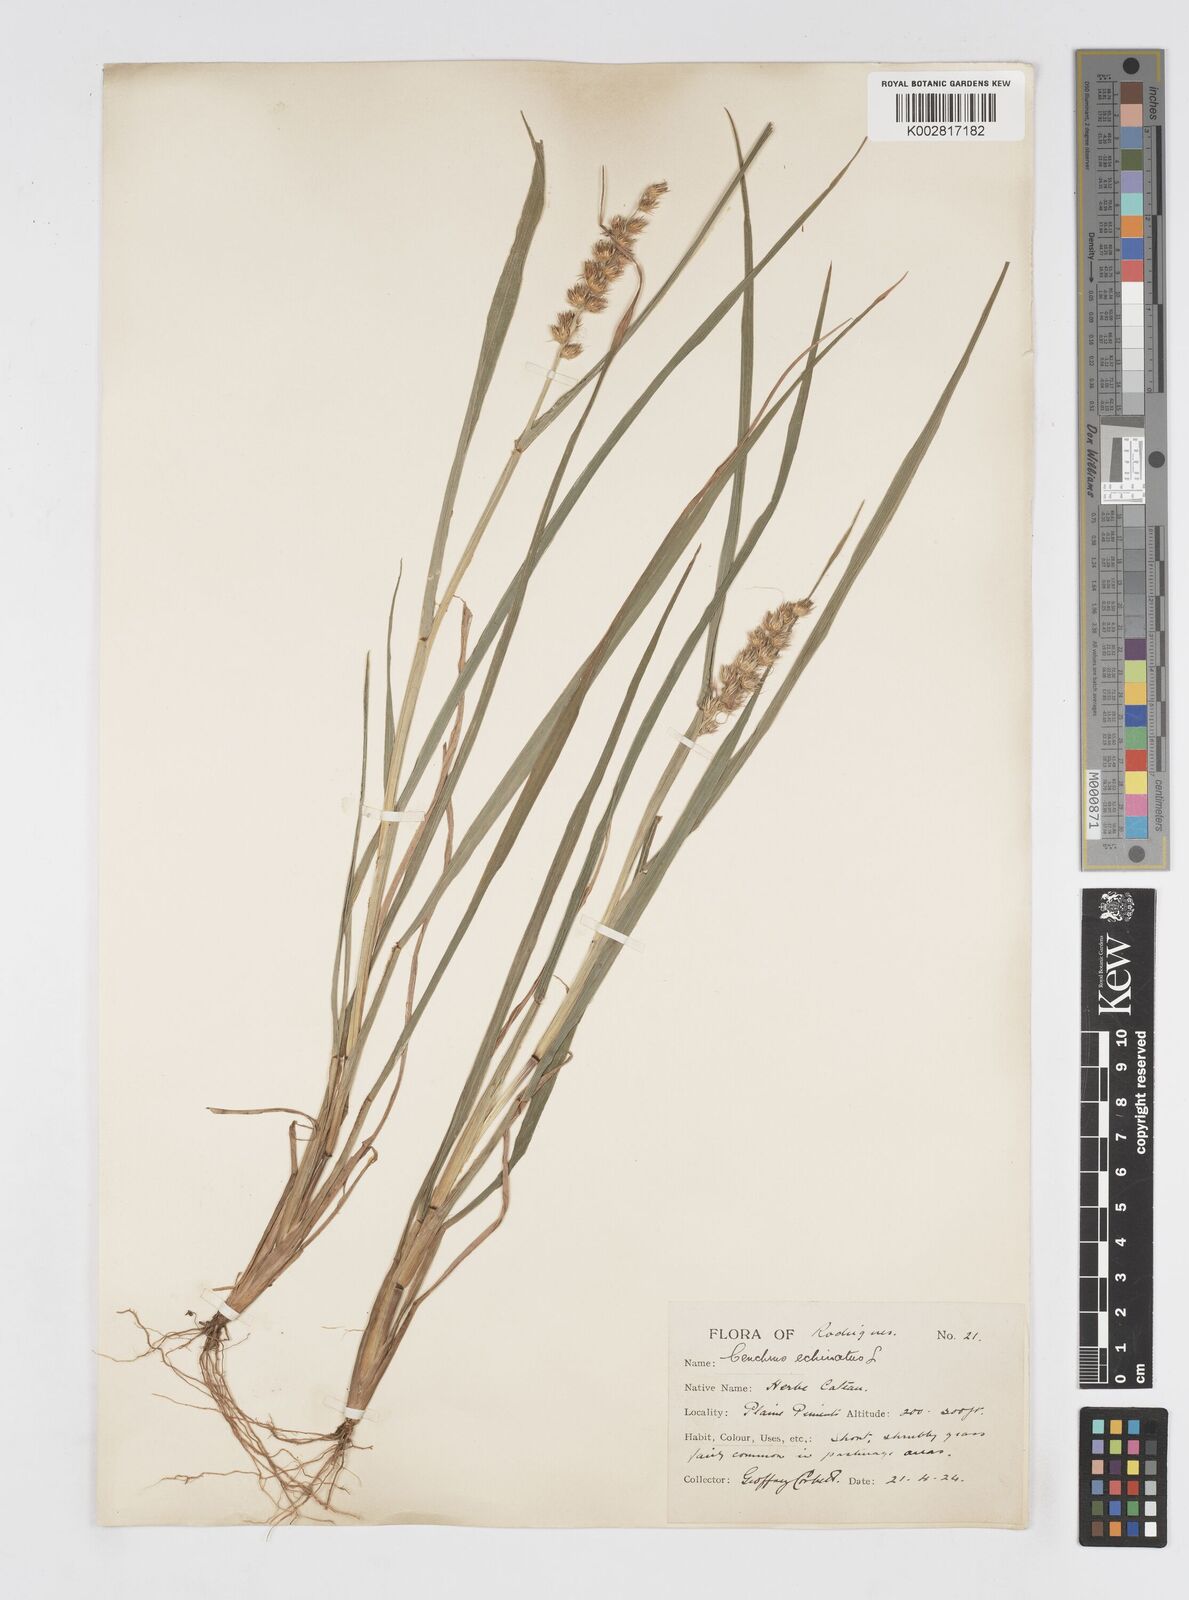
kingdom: Plantae
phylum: Tracheophyta
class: Liliopsida
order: Poales
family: Poaceae
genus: Cenchrus
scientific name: Cenchrus
